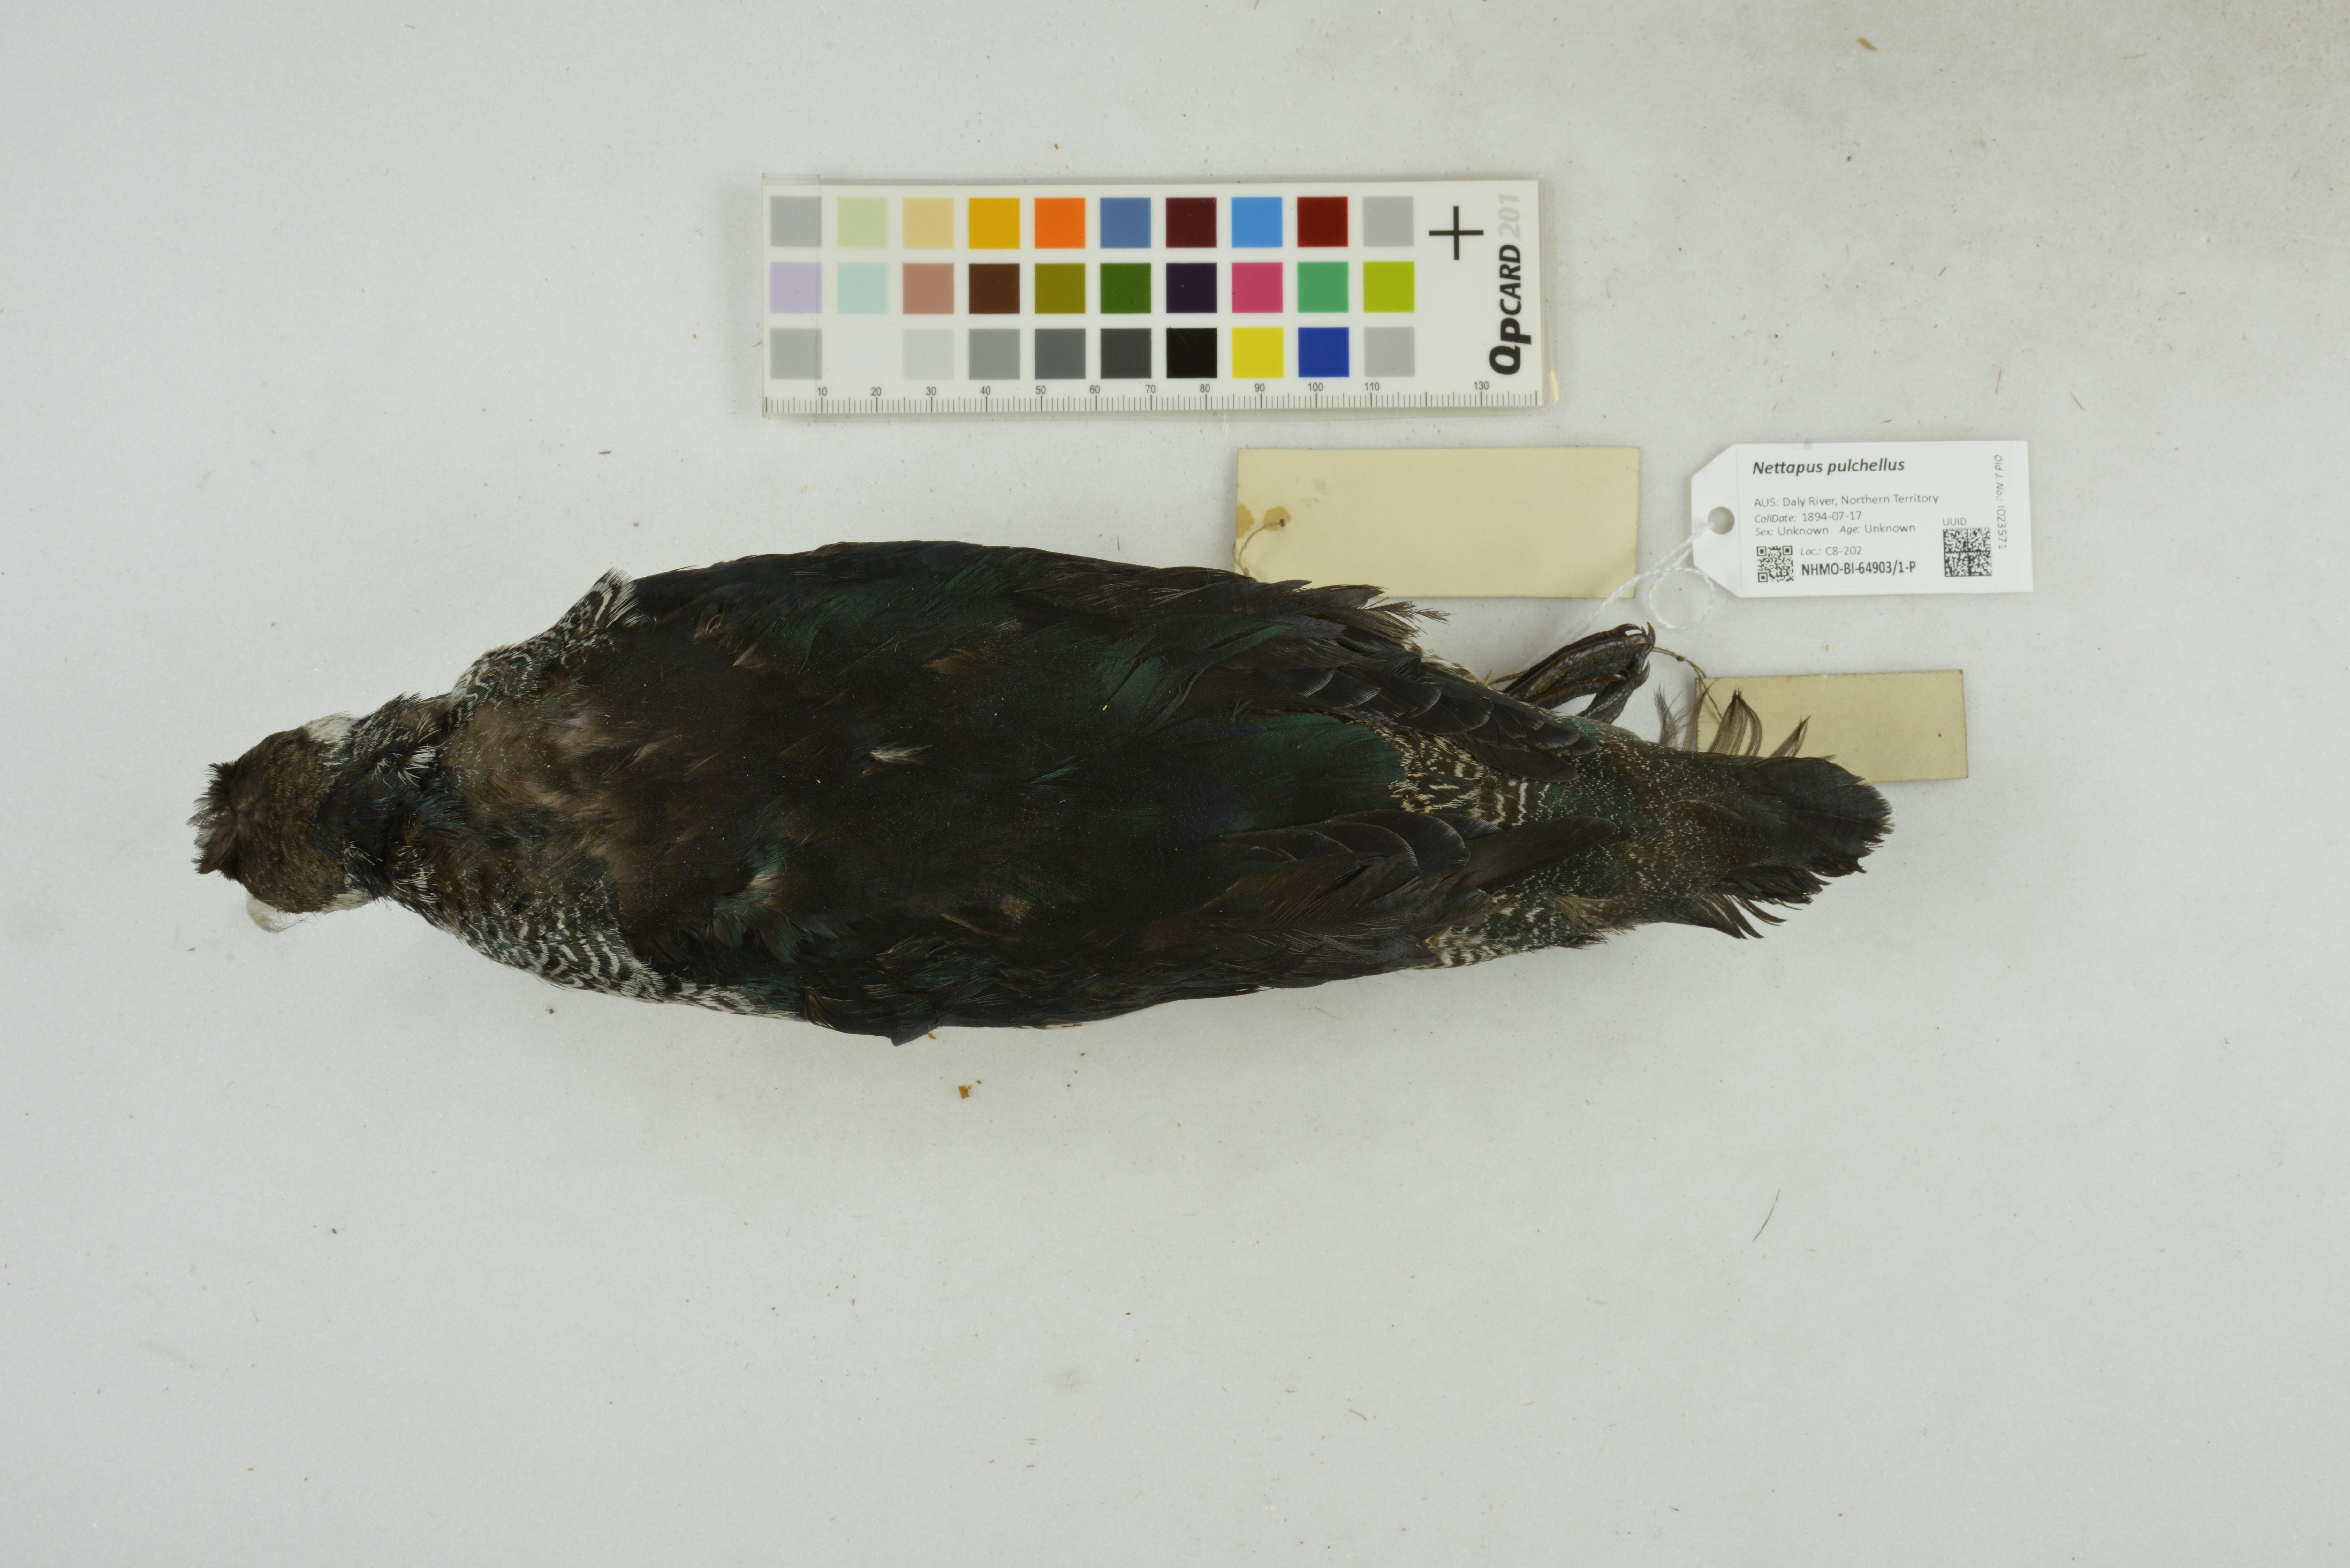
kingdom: Animalia
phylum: Chordata
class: Aves
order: Anseriformes
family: Anatidae
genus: Nettapus
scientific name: Nettapus pulchellus
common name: Green pygmy-goose
